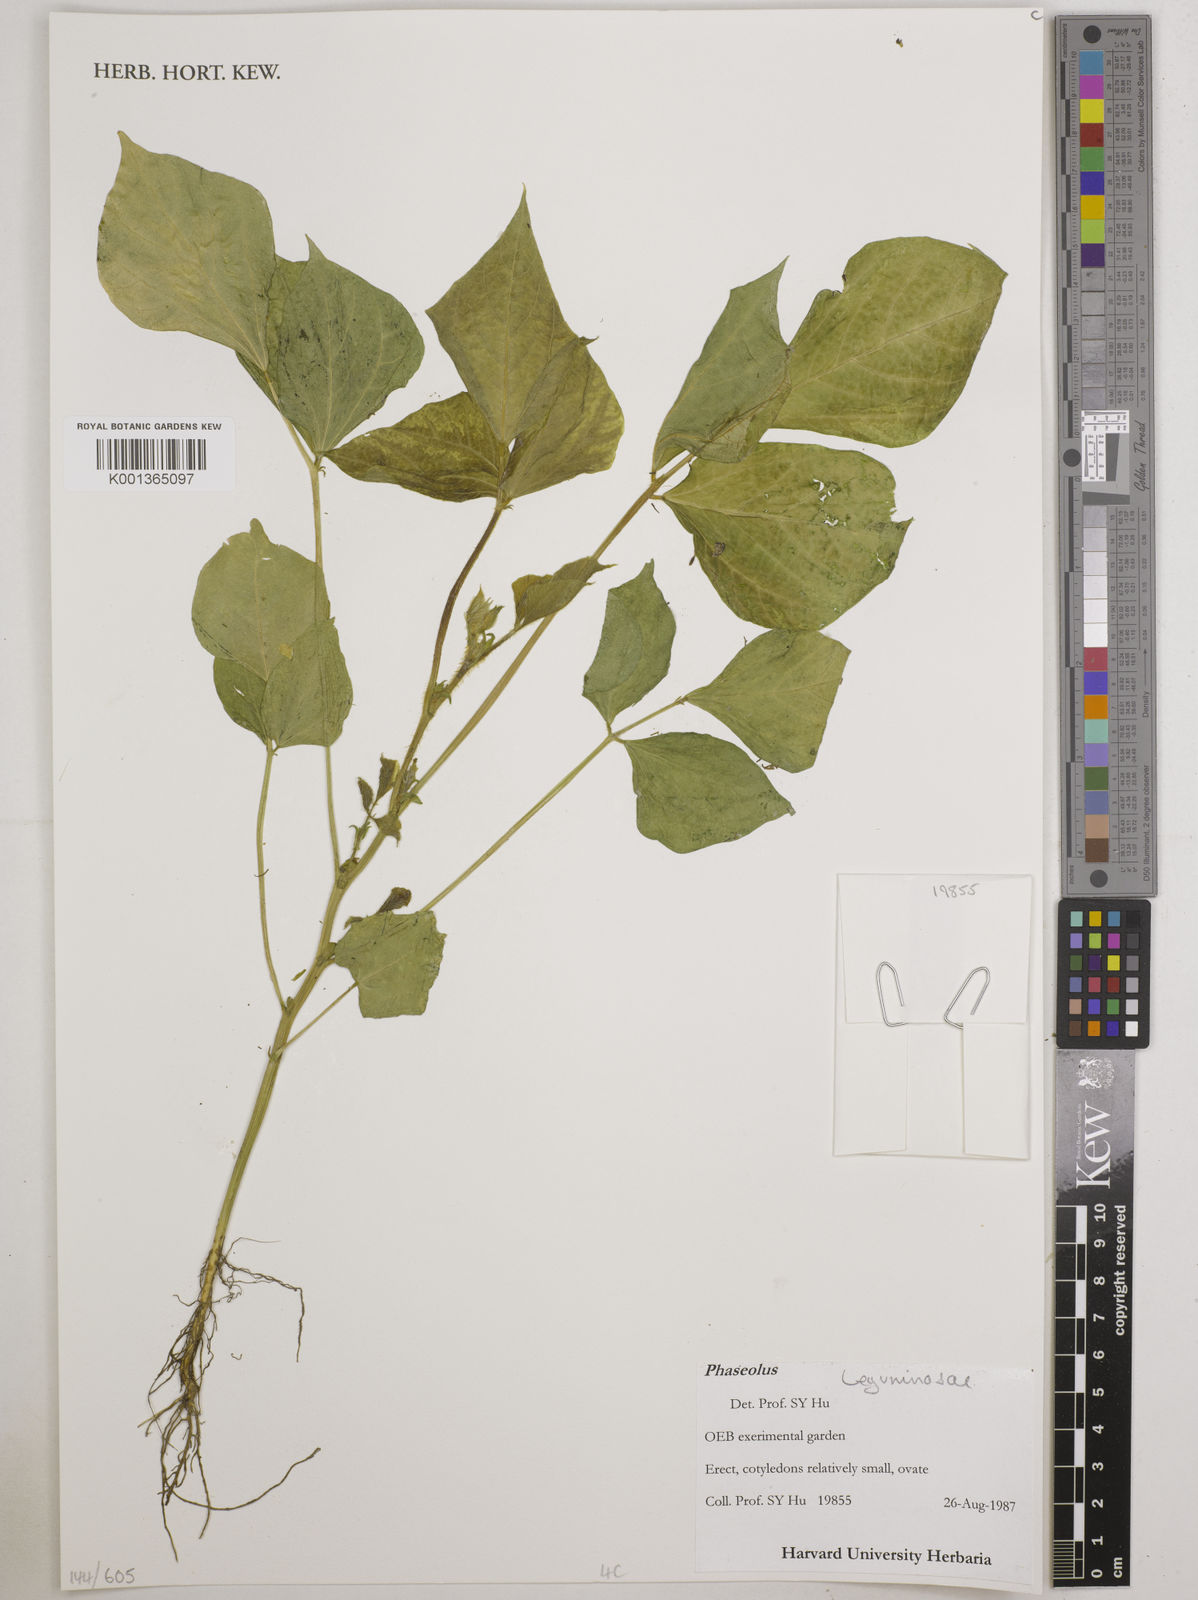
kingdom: Plantae
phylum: Tracheophyta
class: Magnoliopsida
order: Fabales
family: Fabaceae
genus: Phaseolus
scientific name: Phaseolus
